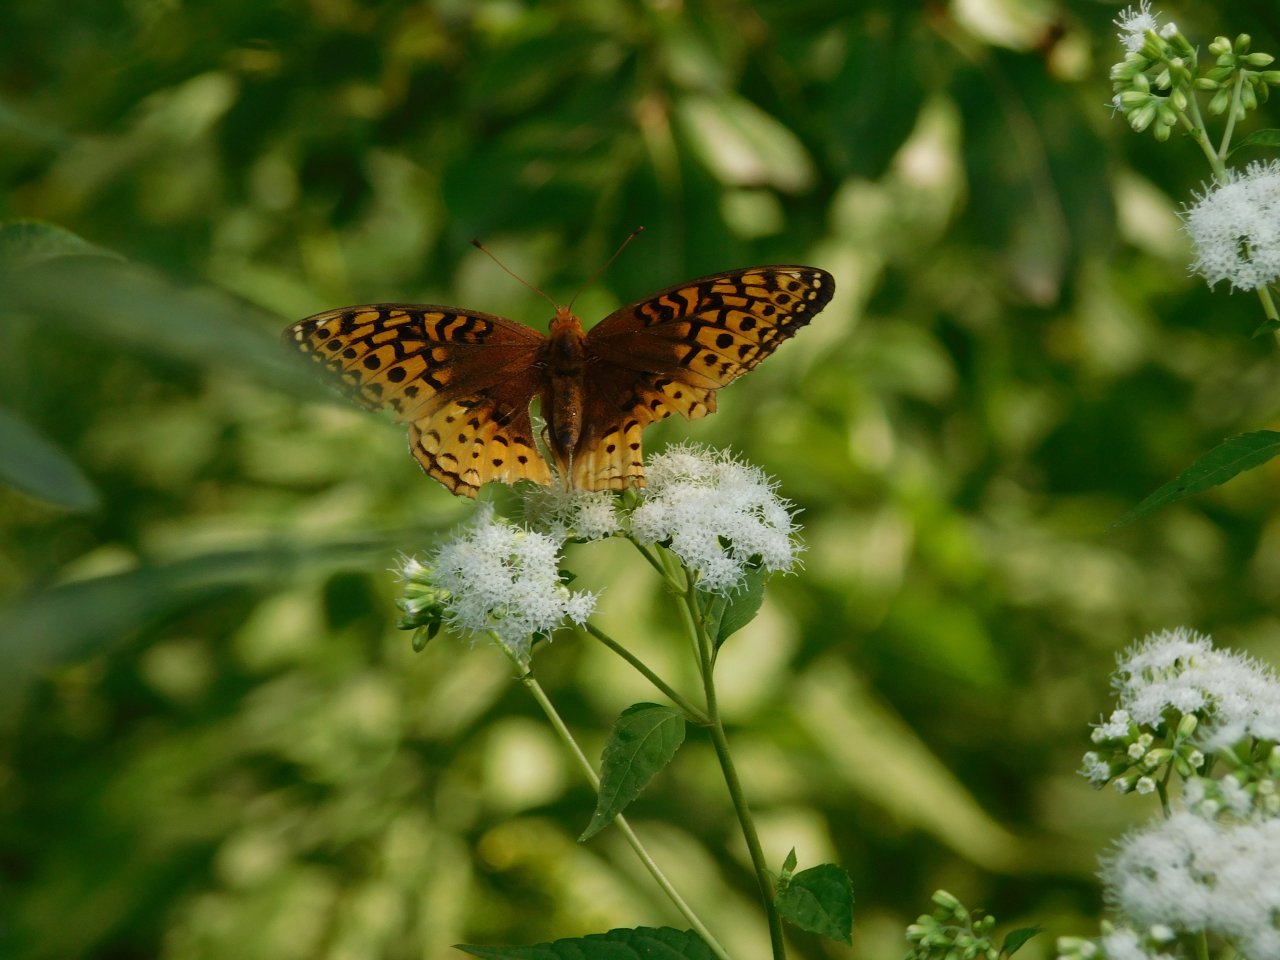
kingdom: Animalia
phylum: Arthropoda
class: Insecta
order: Lepidoptera
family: Nymphalidae
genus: Speyeria
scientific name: Speyeria cybele
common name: Great Spangled Fritillary
